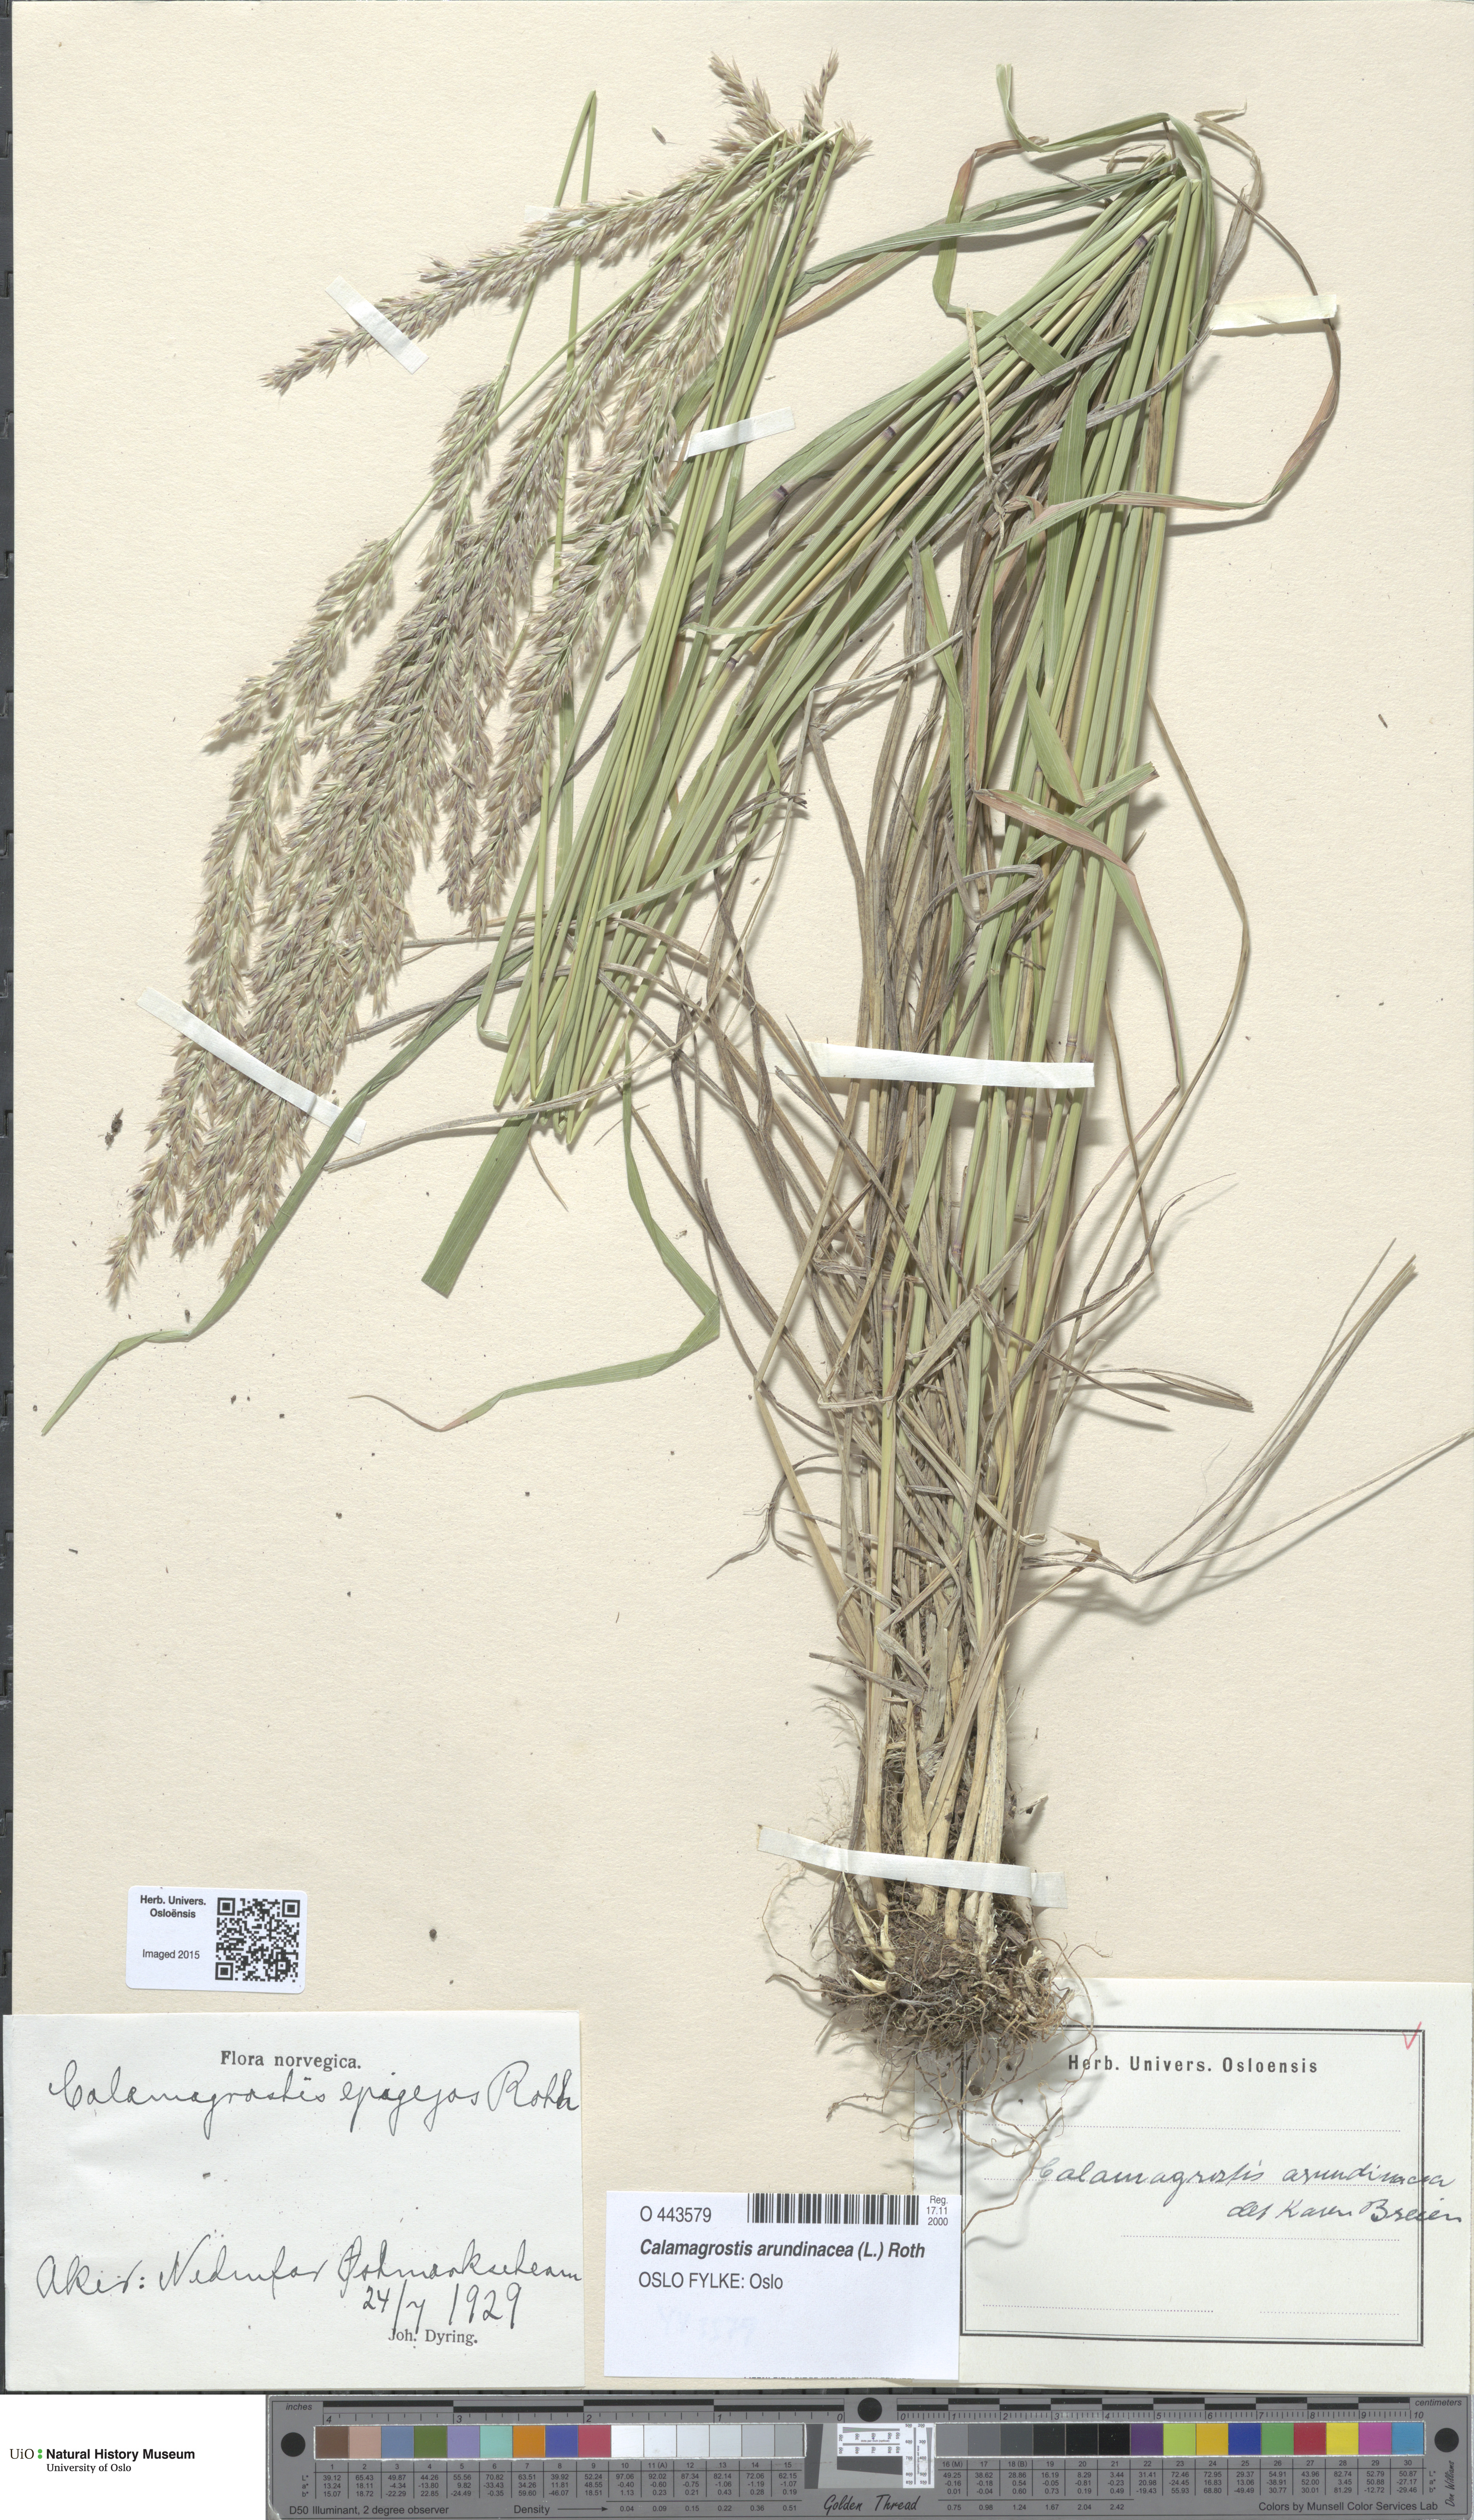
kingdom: Plantae
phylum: Tracheophyta
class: Liliopsida
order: Poales
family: Poaceae
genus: Calamagrostis
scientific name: Calamagrostis arundinacea
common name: Metskastik
